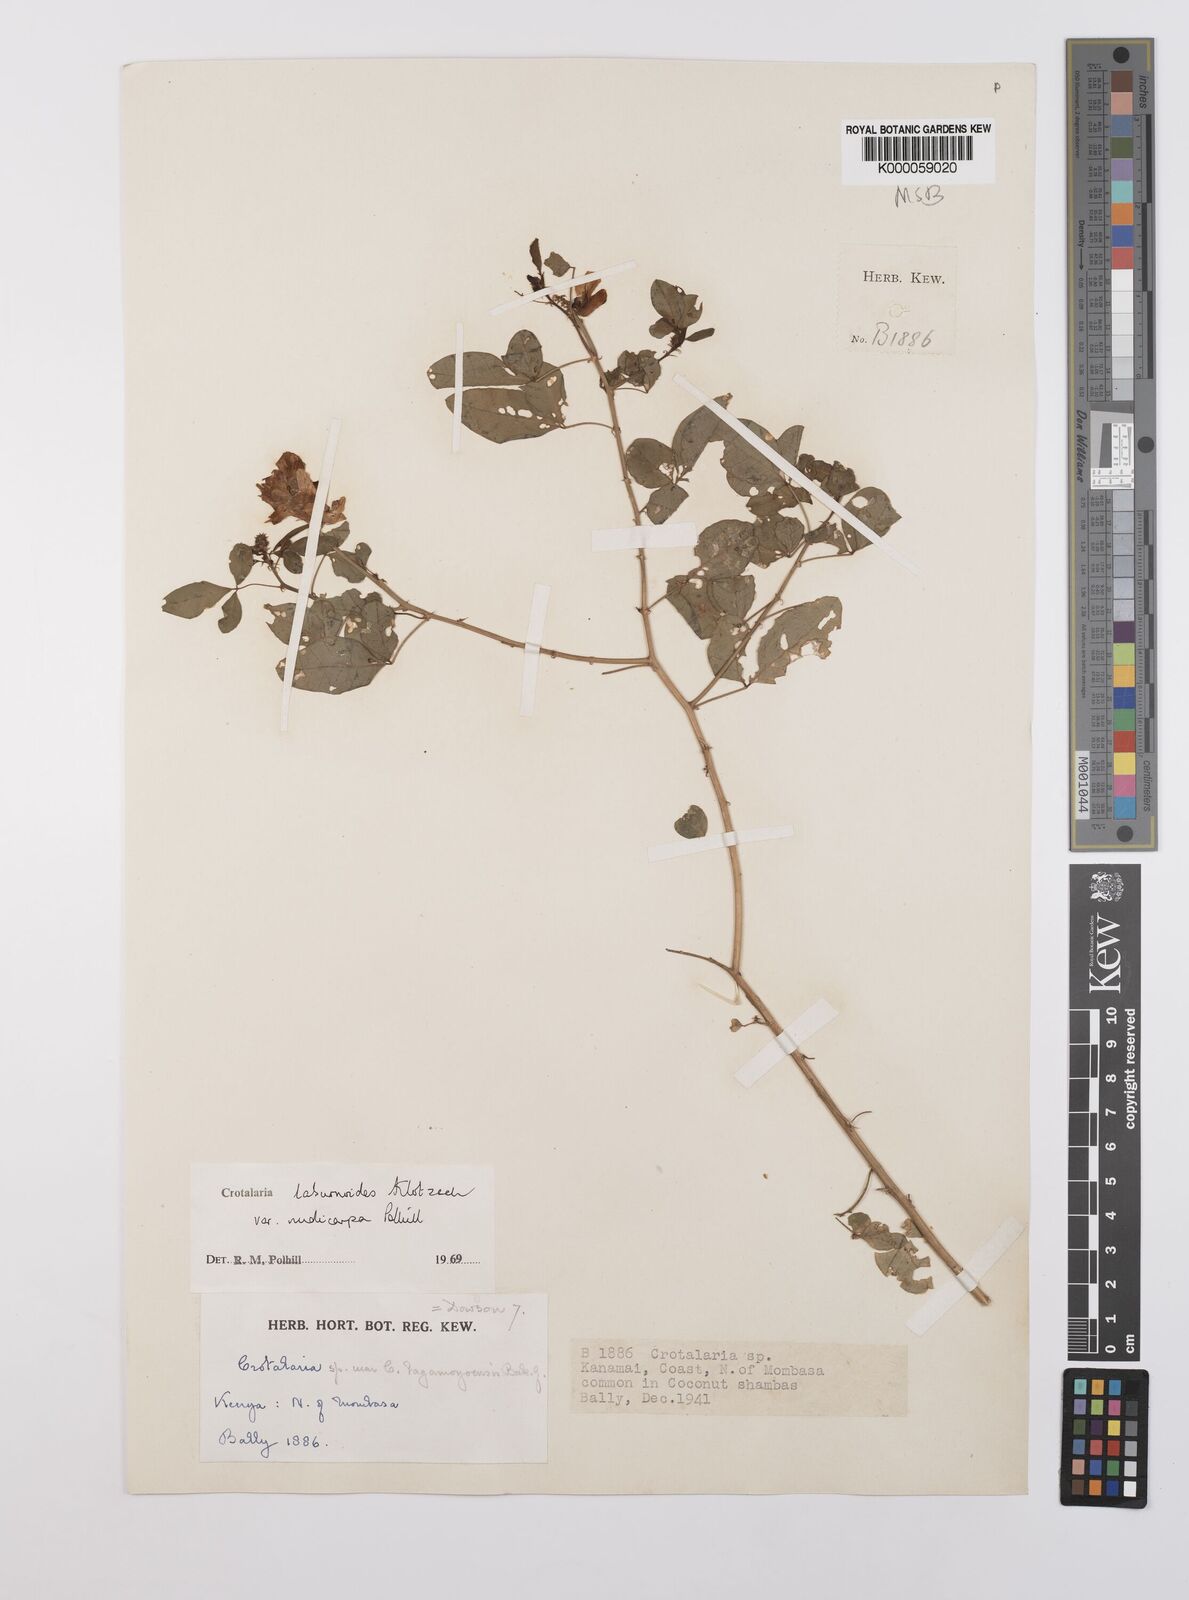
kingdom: Plantae
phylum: Tracheophyta
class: Magnoliopsida
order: Fabales
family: Fabaceae
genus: Crotalaria
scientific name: Crotalaria laburnoides
